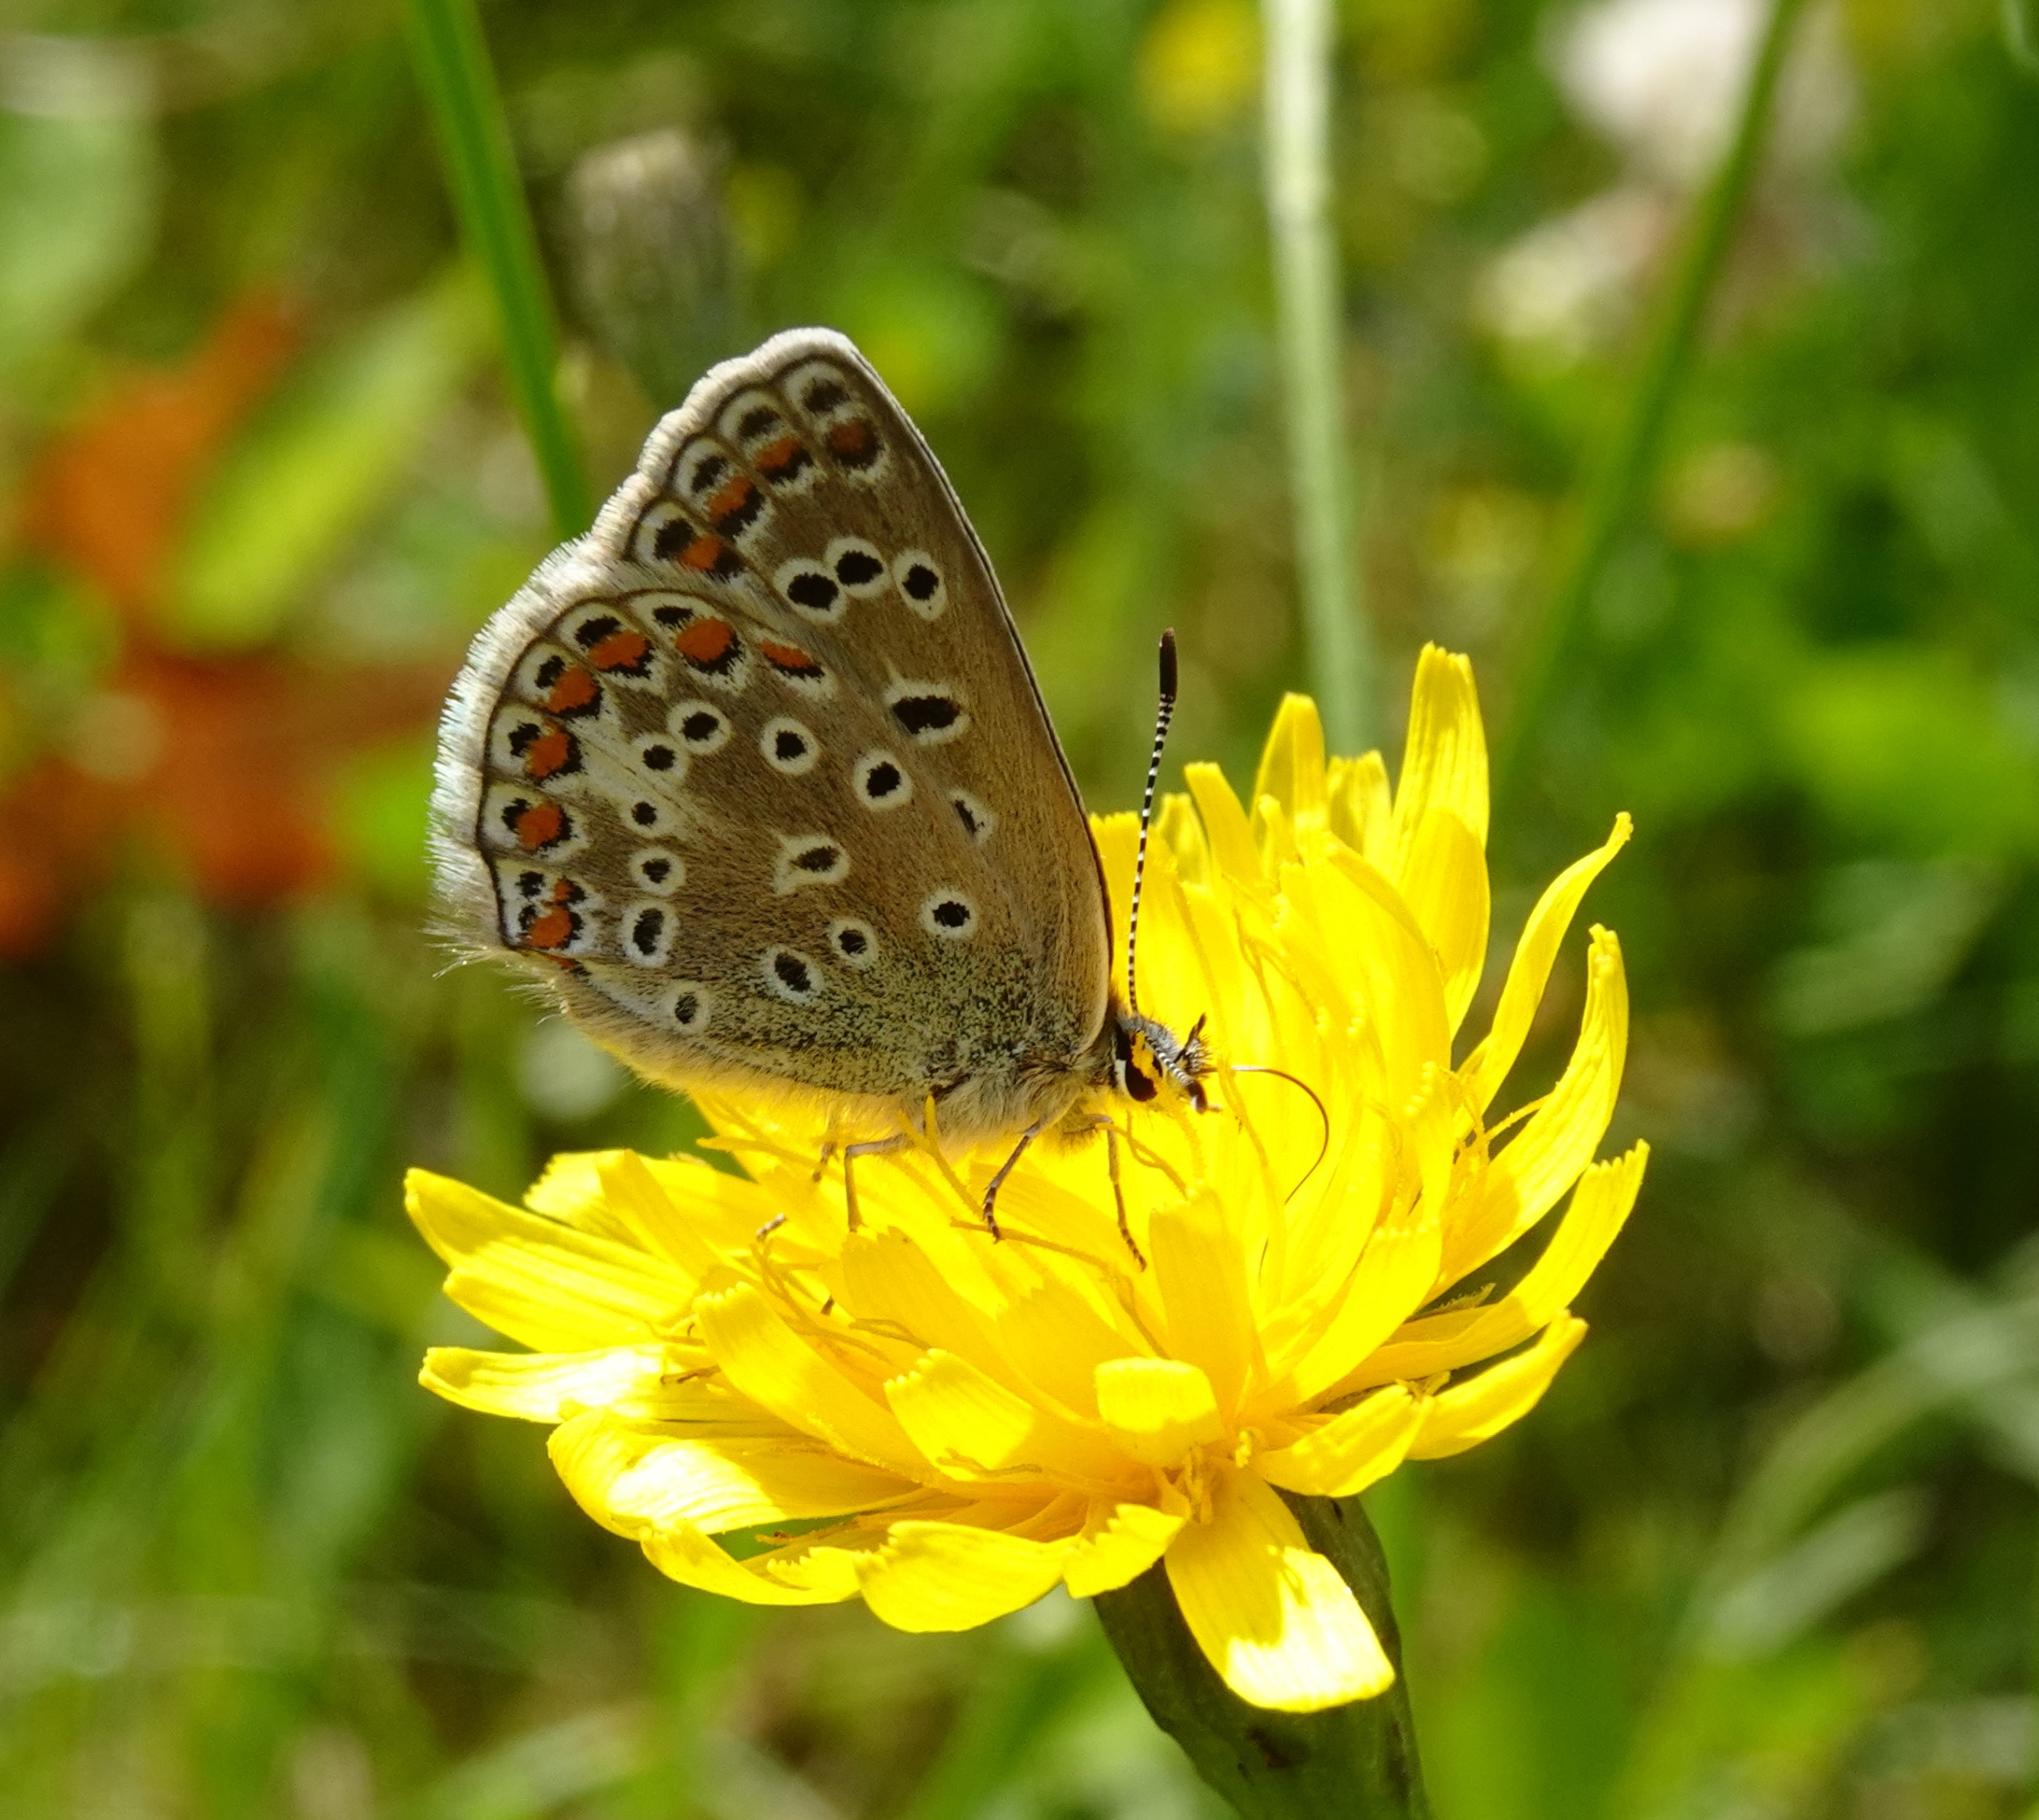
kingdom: Animalia
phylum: Arthropoda
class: Insecta
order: Lepidoptera
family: Lycaenidae
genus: Polyommatus
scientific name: Polyommatus icarus
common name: Almindelig blåfugl
